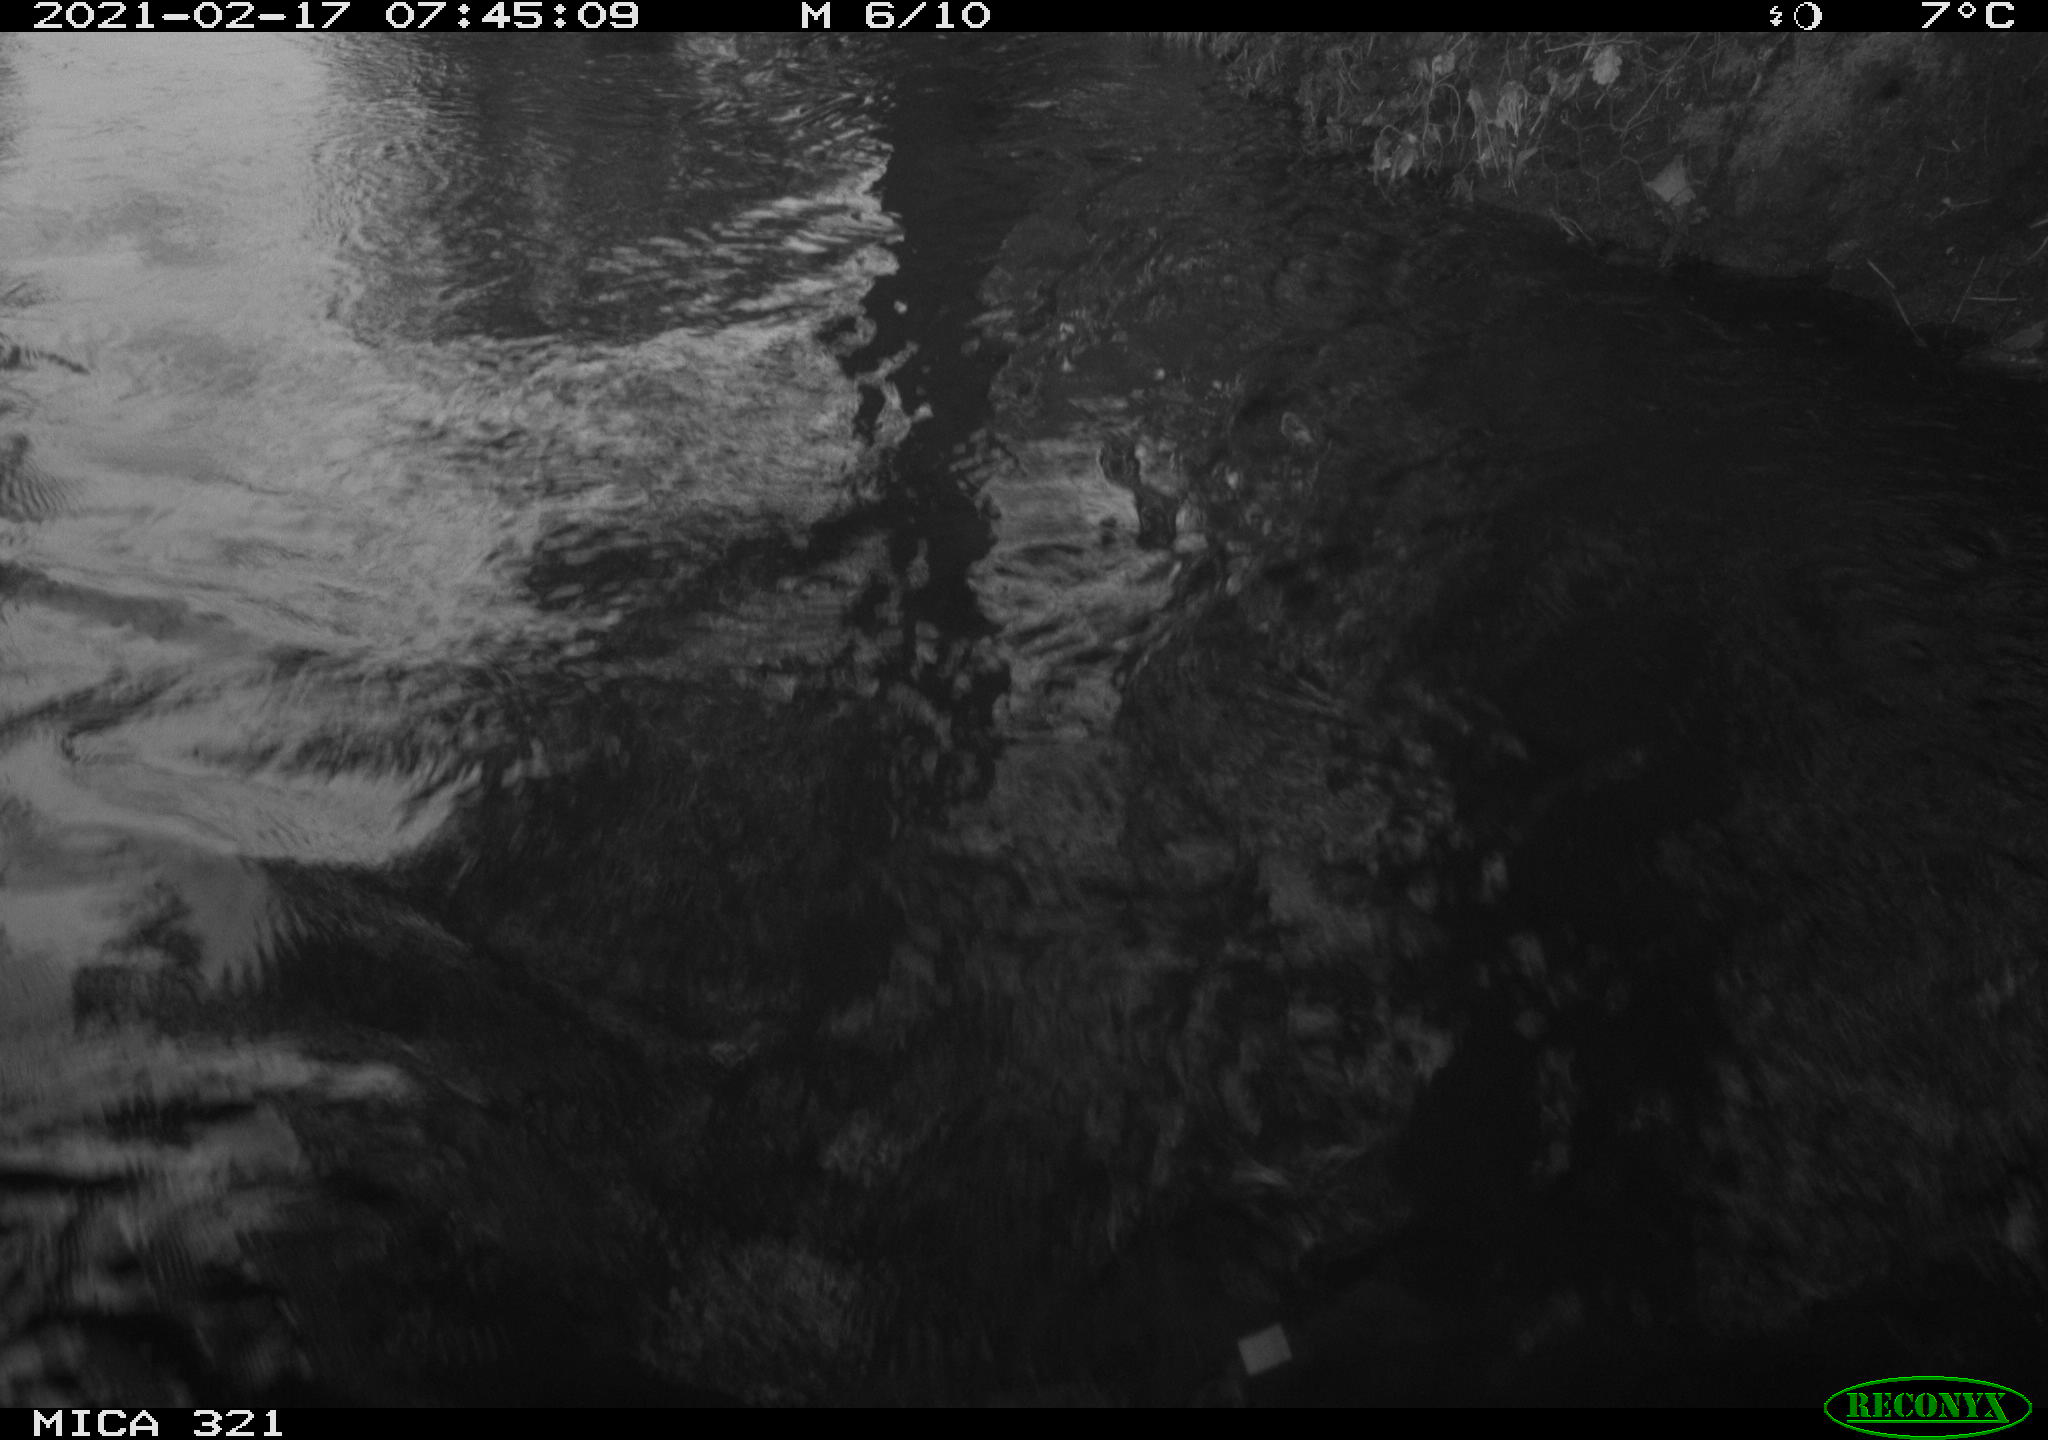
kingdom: Animalia
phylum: Chordata
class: Aves
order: Suliformes
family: Phalacrocoracidae
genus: Phalacrocorax
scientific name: Phalacrocorax carbo
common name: Great cormorant
